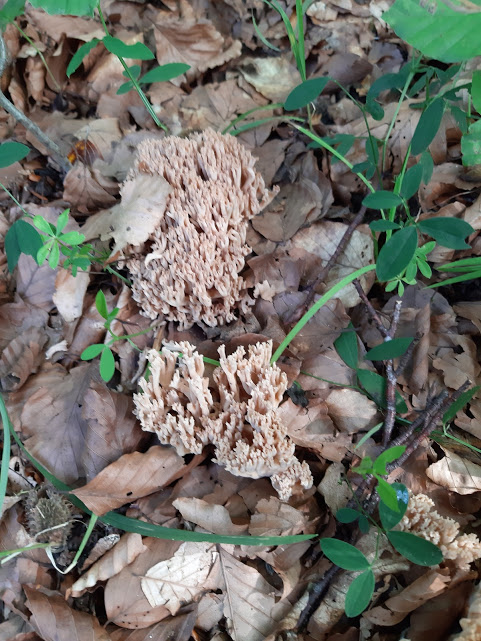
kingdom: Fungi
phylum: Basidiomycota
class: Agaricomycetes
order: Gomphales
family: Gomphaceae
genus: Ramaria
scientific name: Ramaria
